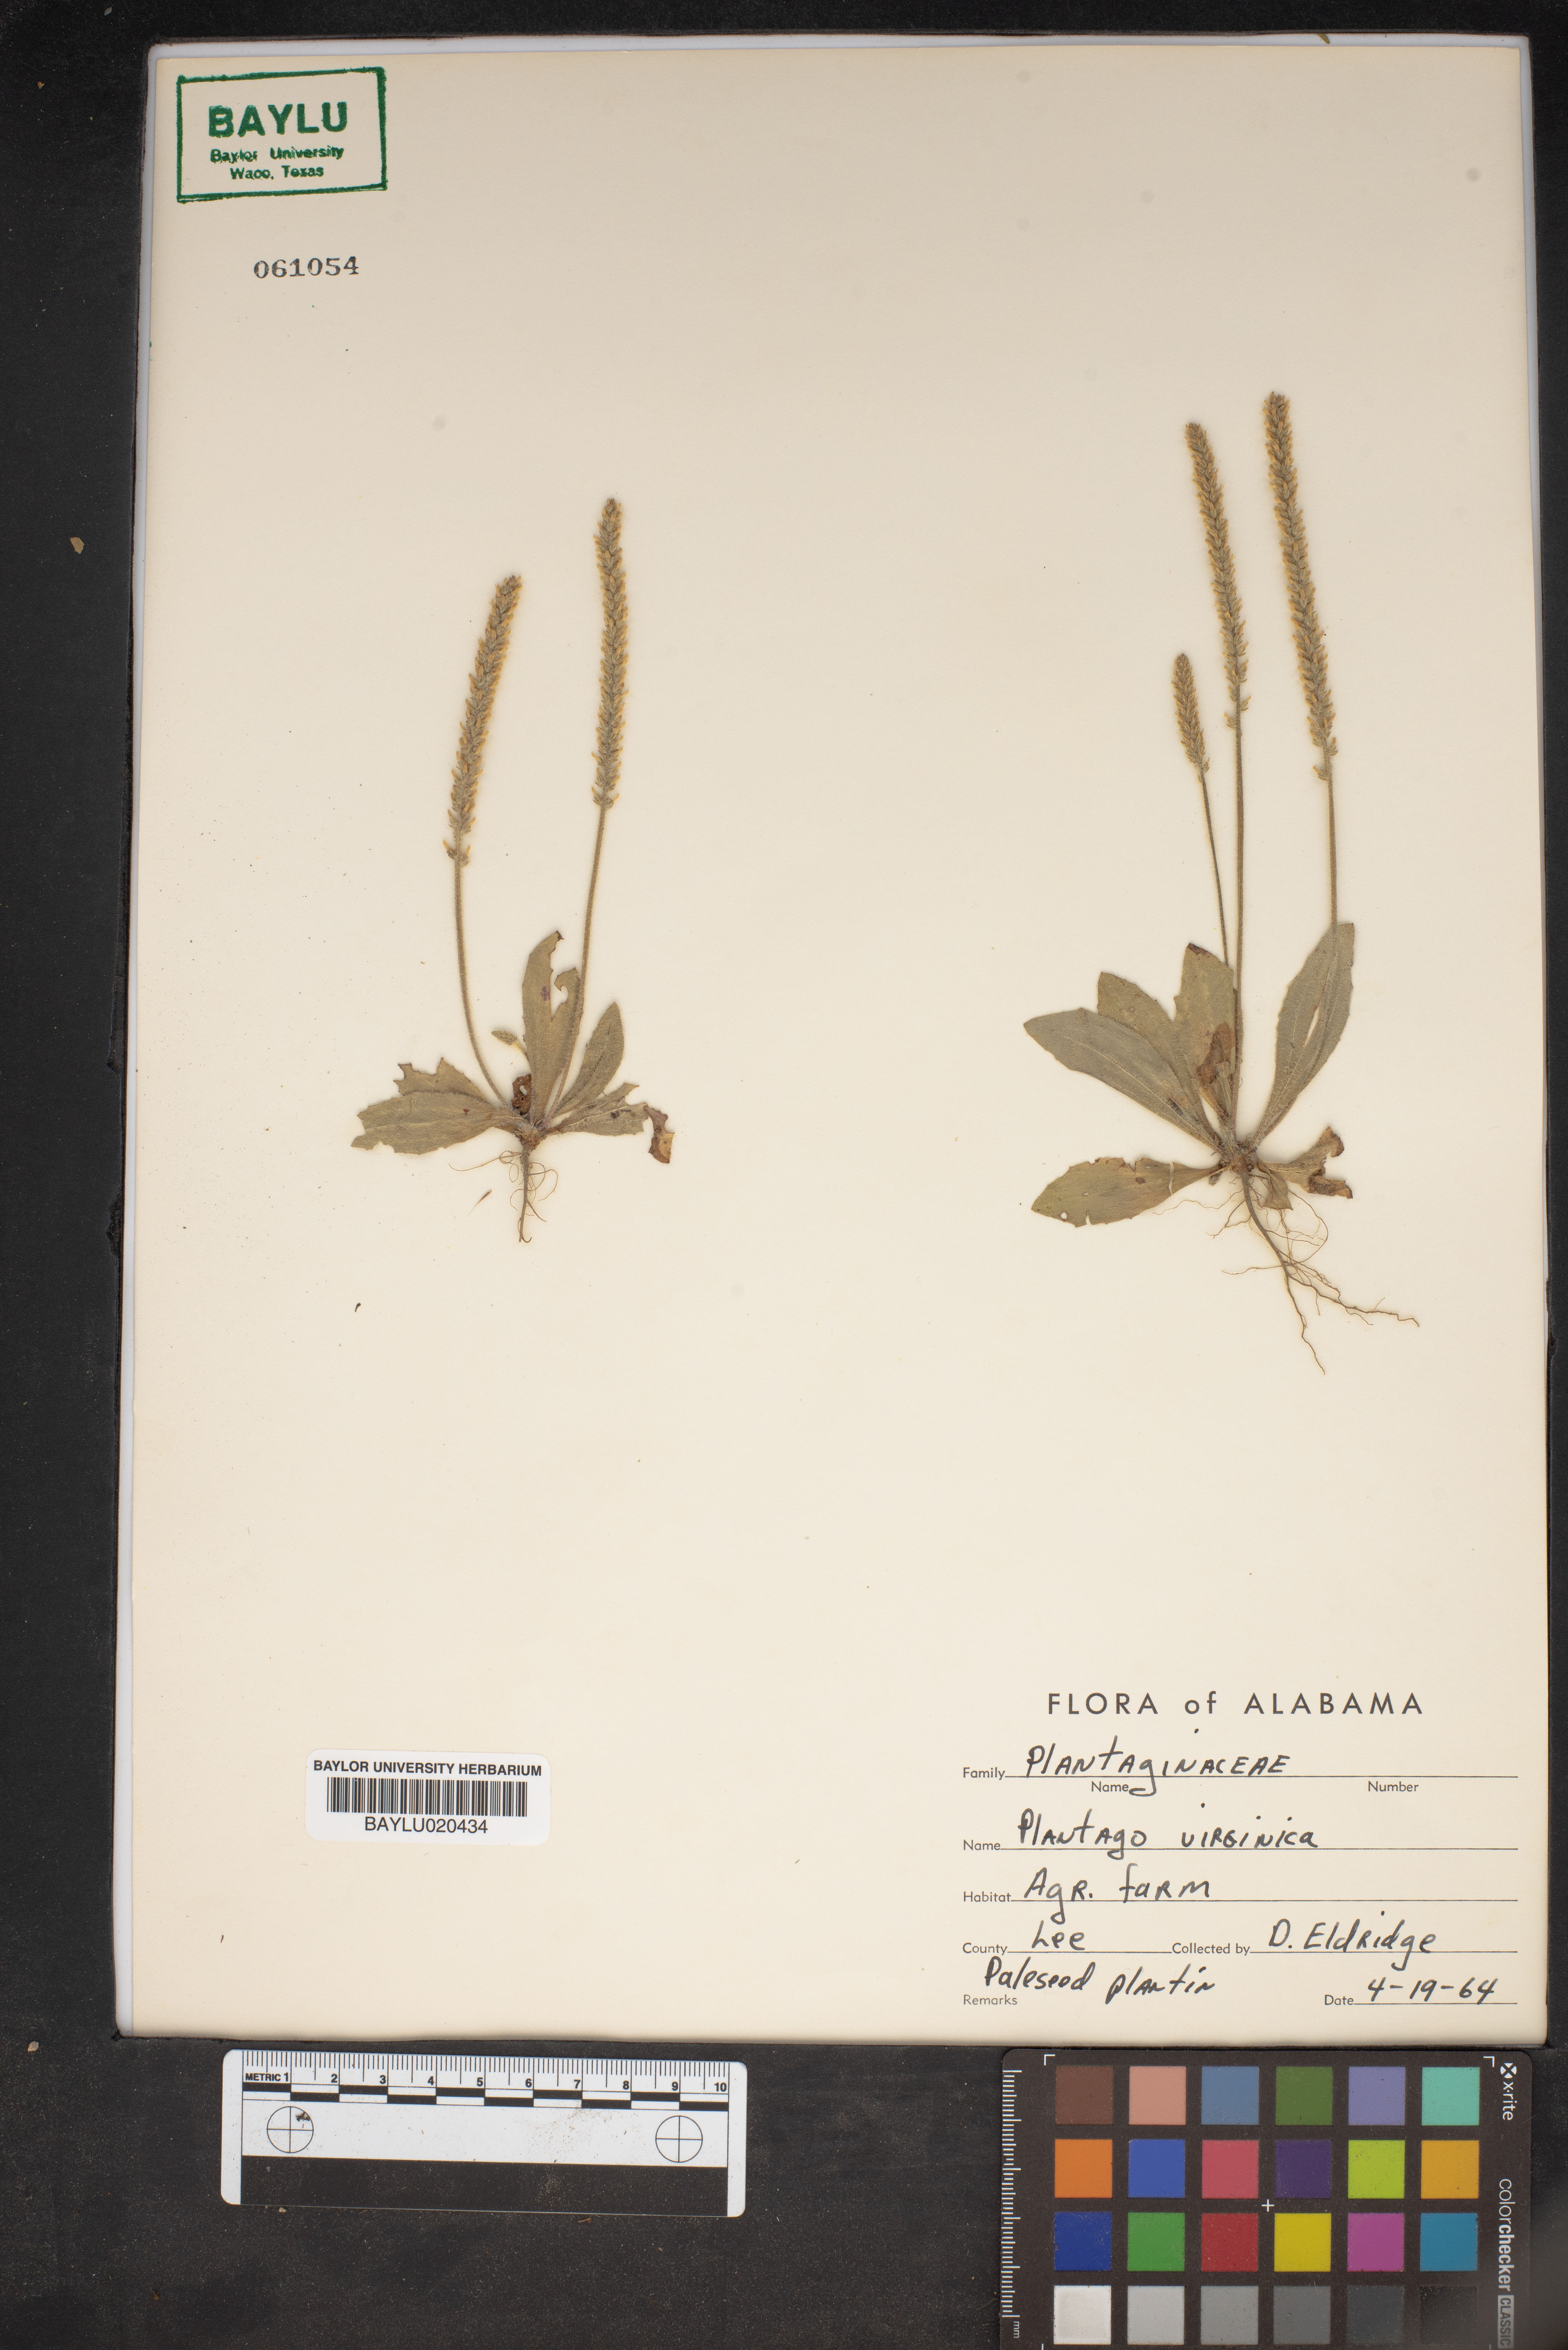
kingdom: Plantae
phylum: Tracheophyta
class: Magnoliopsida
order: Lamiales
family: Plantaginaceae
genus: Plantago
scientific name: Plantago virginica
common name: Hoary plantain
